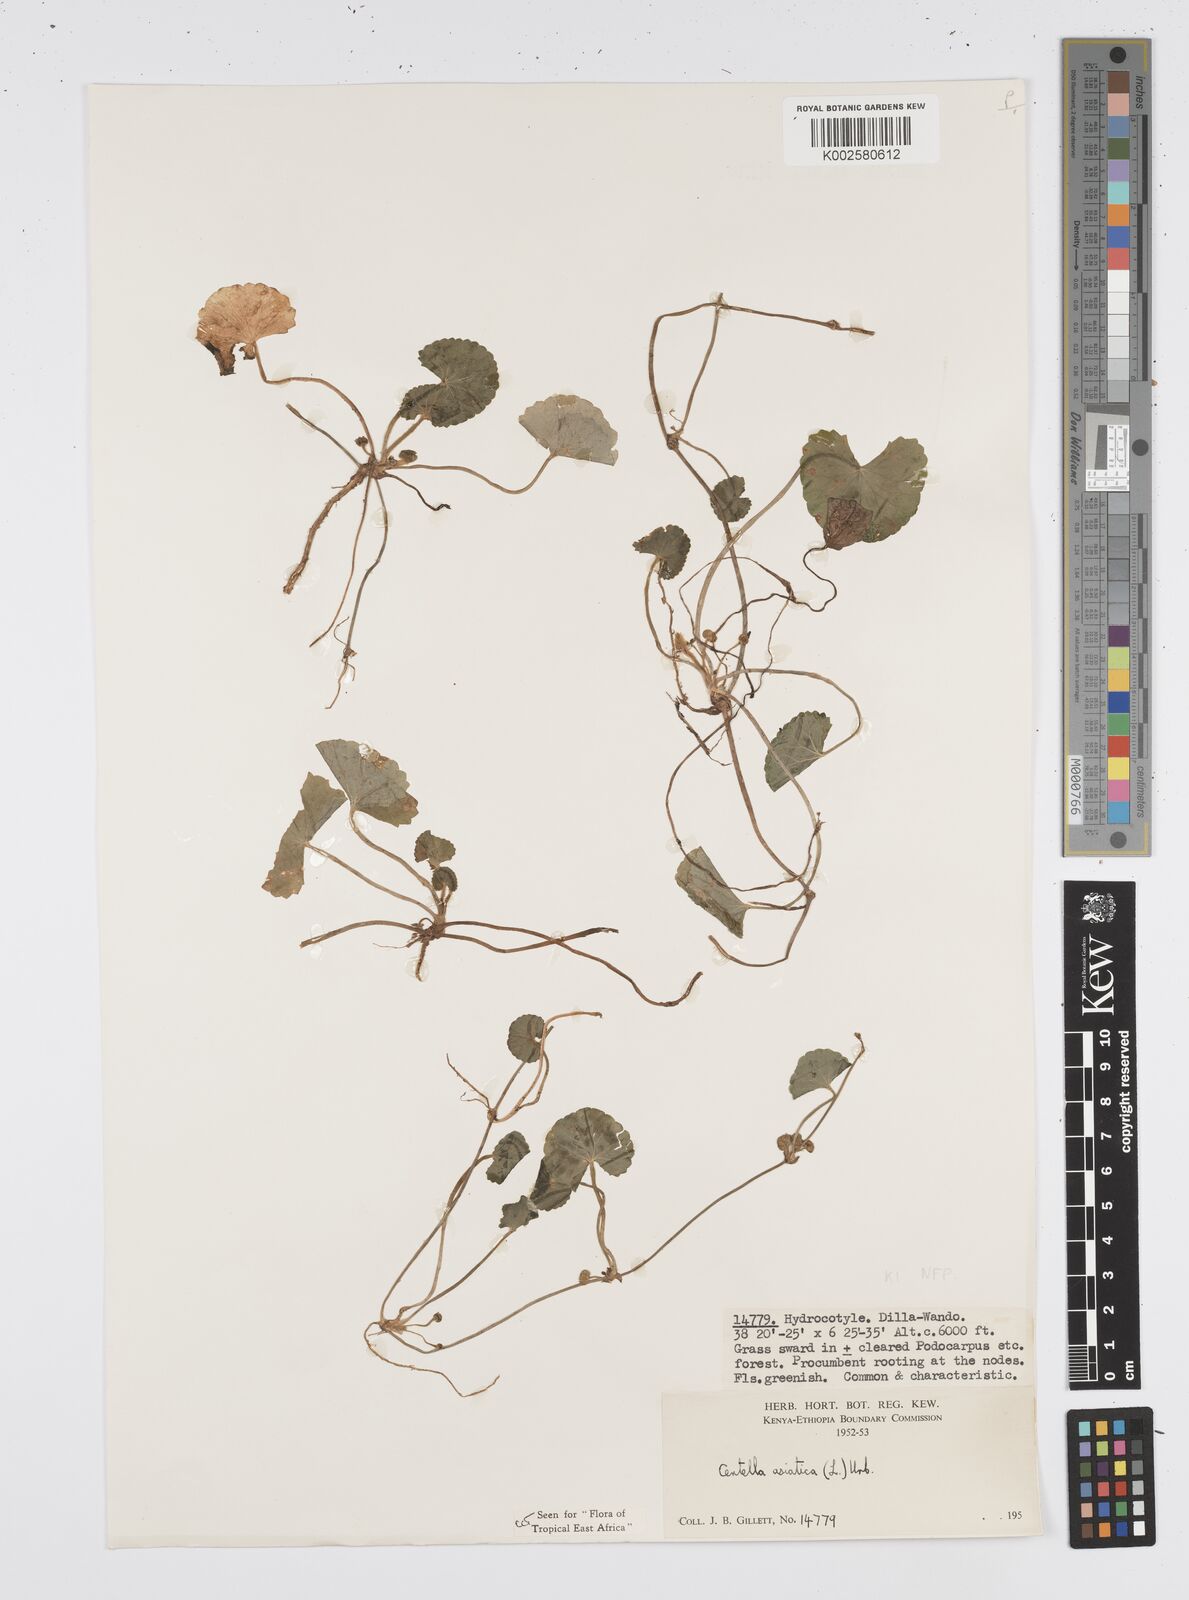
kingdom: Plantae
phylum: Tracheophyta
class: Magnoliopsida
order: Apiales
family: Apiaceae
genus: Centella
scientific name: Centella asiatica
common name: Spadeleaf
